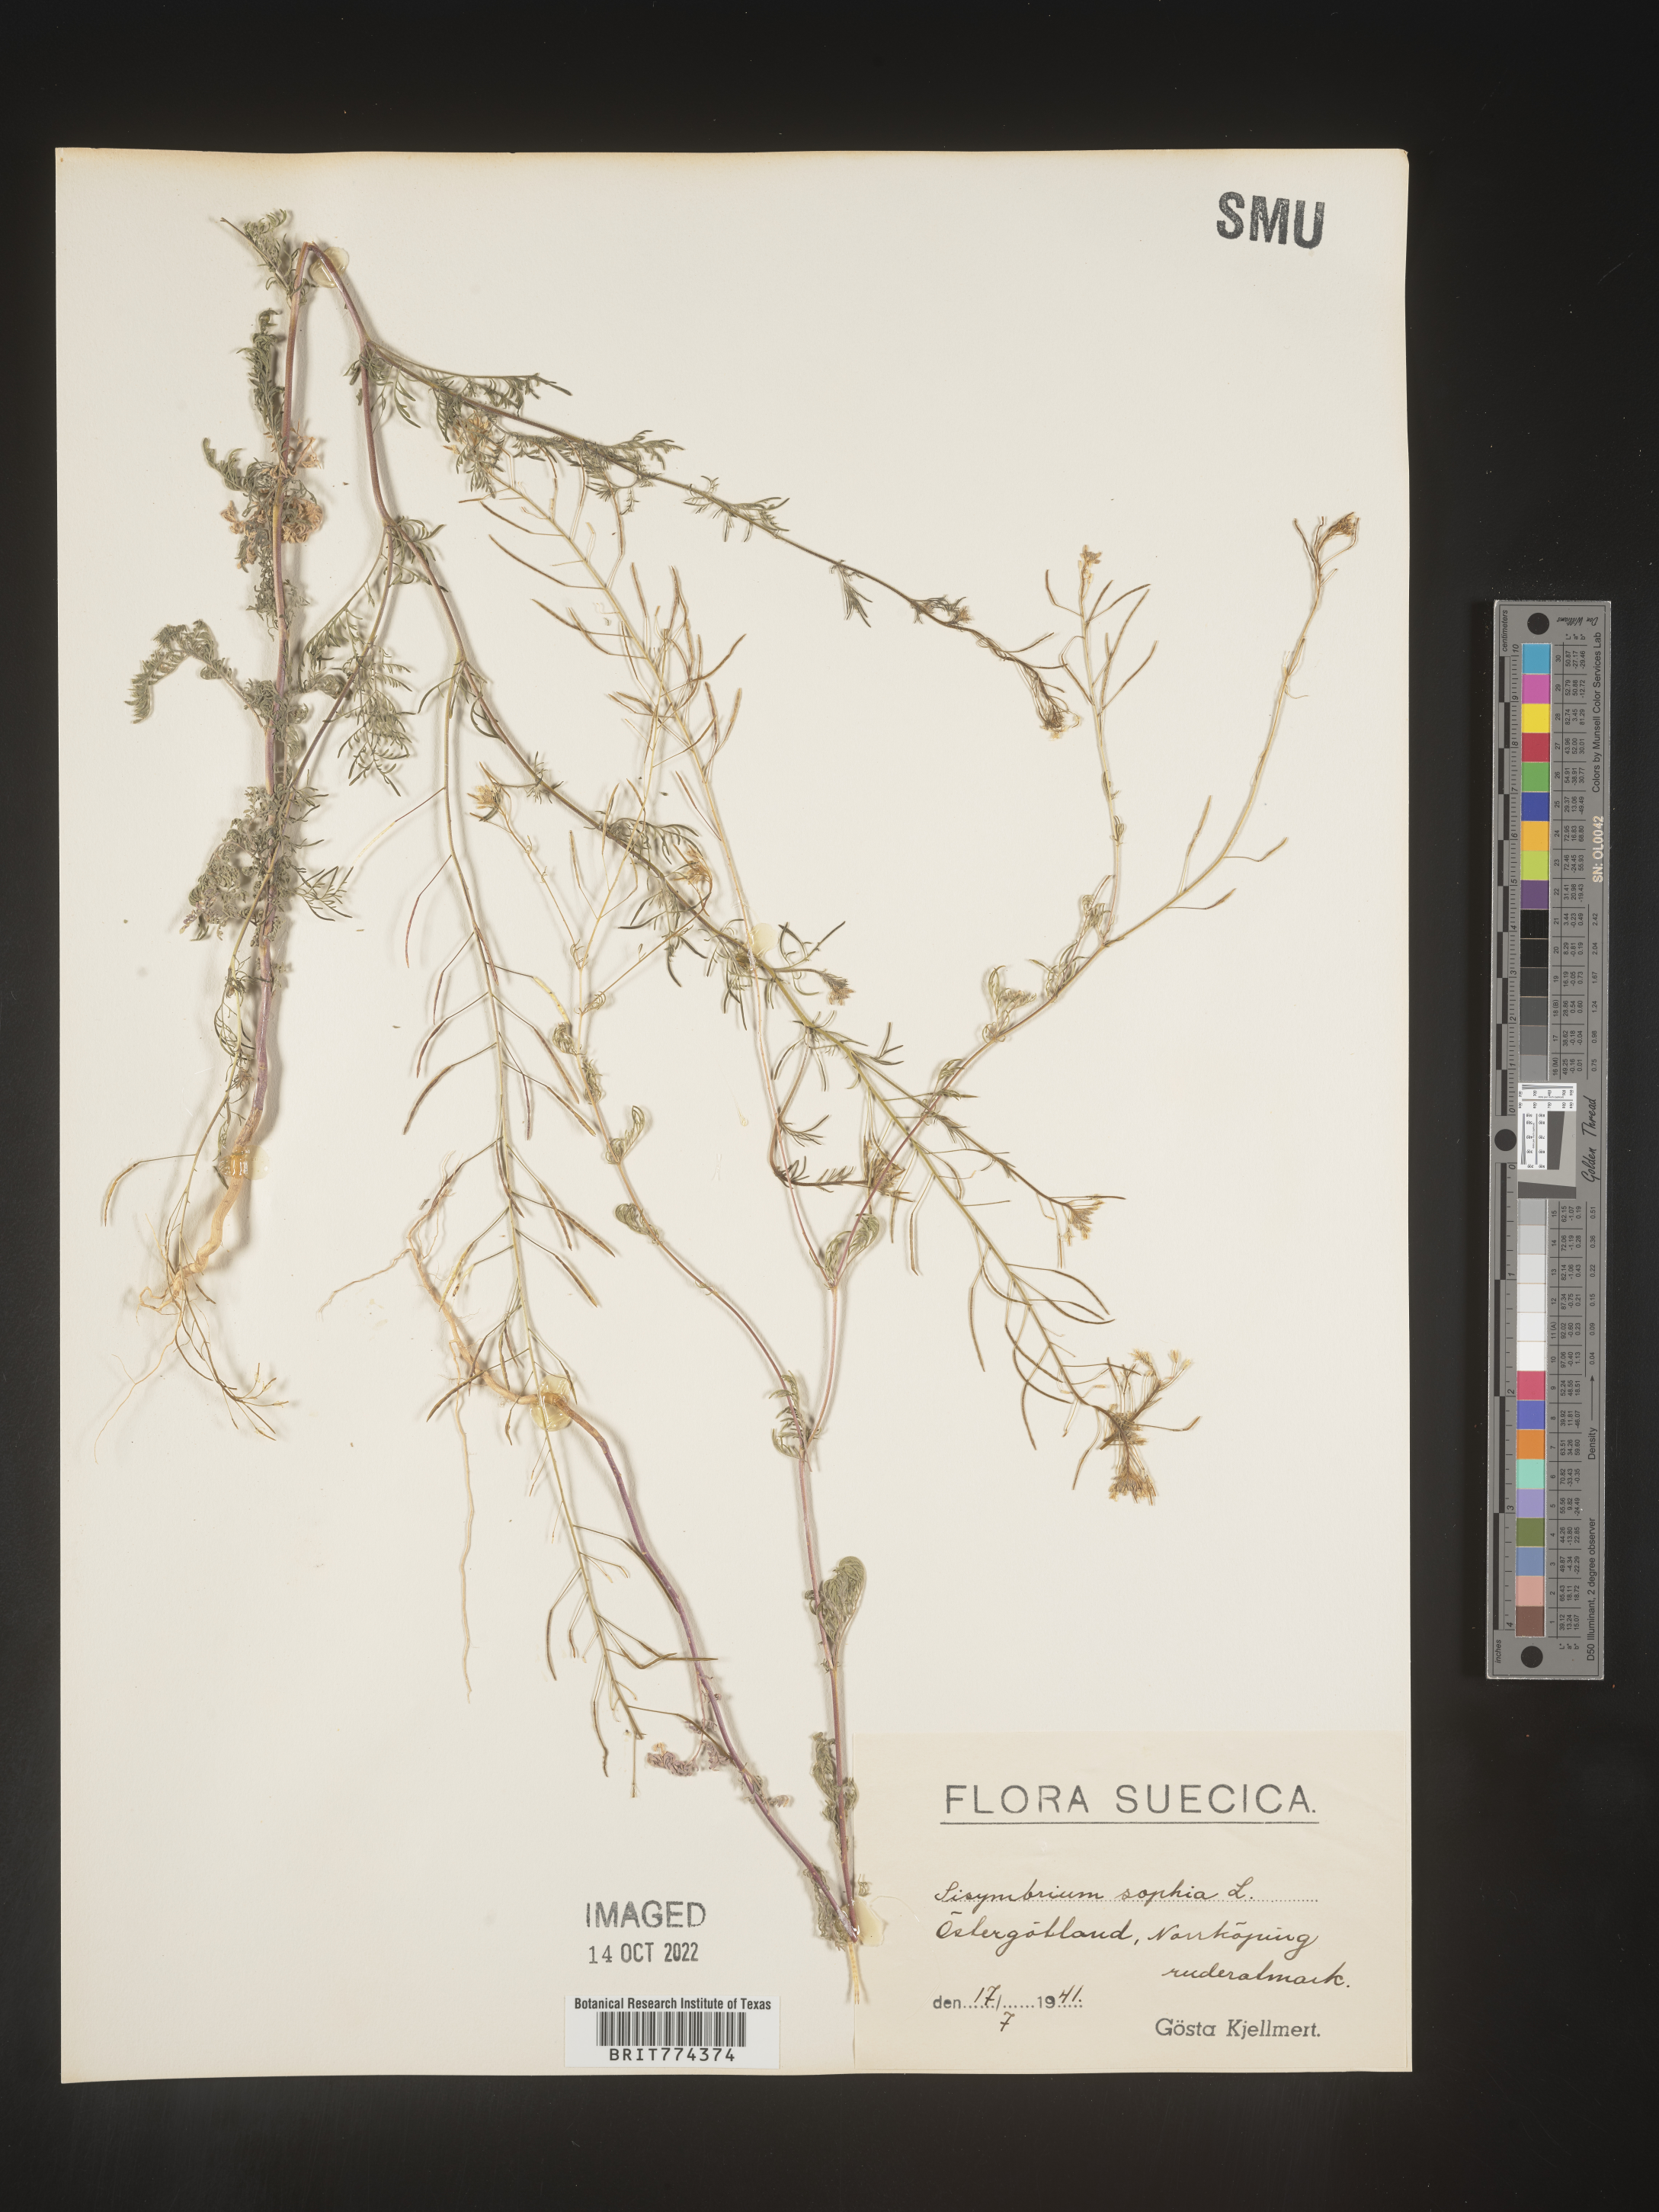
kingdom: Plantae
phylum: Tracheophyta
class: Magnoliopsida
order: Brassicales
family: Brassicaceae
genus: Descurainia
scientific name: Descurainia
